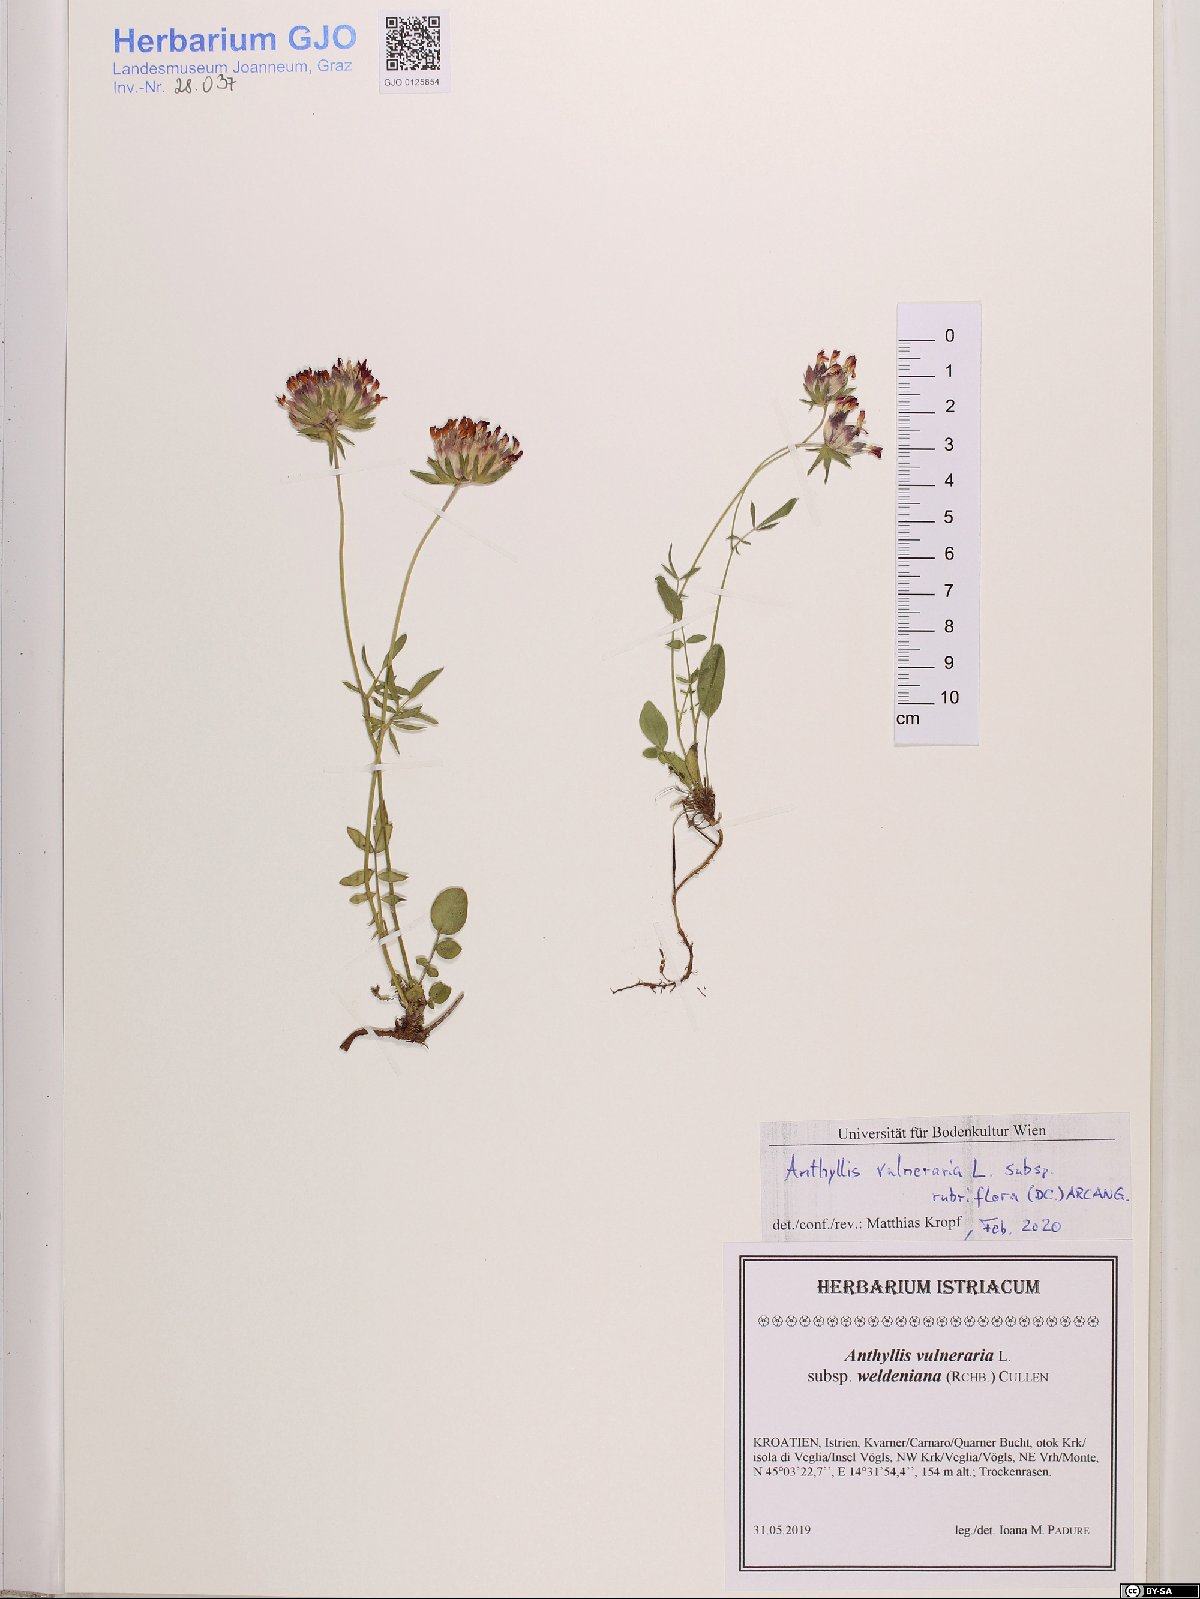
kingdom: Plantae
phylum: Tracheophyta
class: Magnoliopsida
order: Fabales
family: Fabaceae
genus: Anthyllis
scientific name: Anthyllis vulneraria
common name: Kidney vetch
